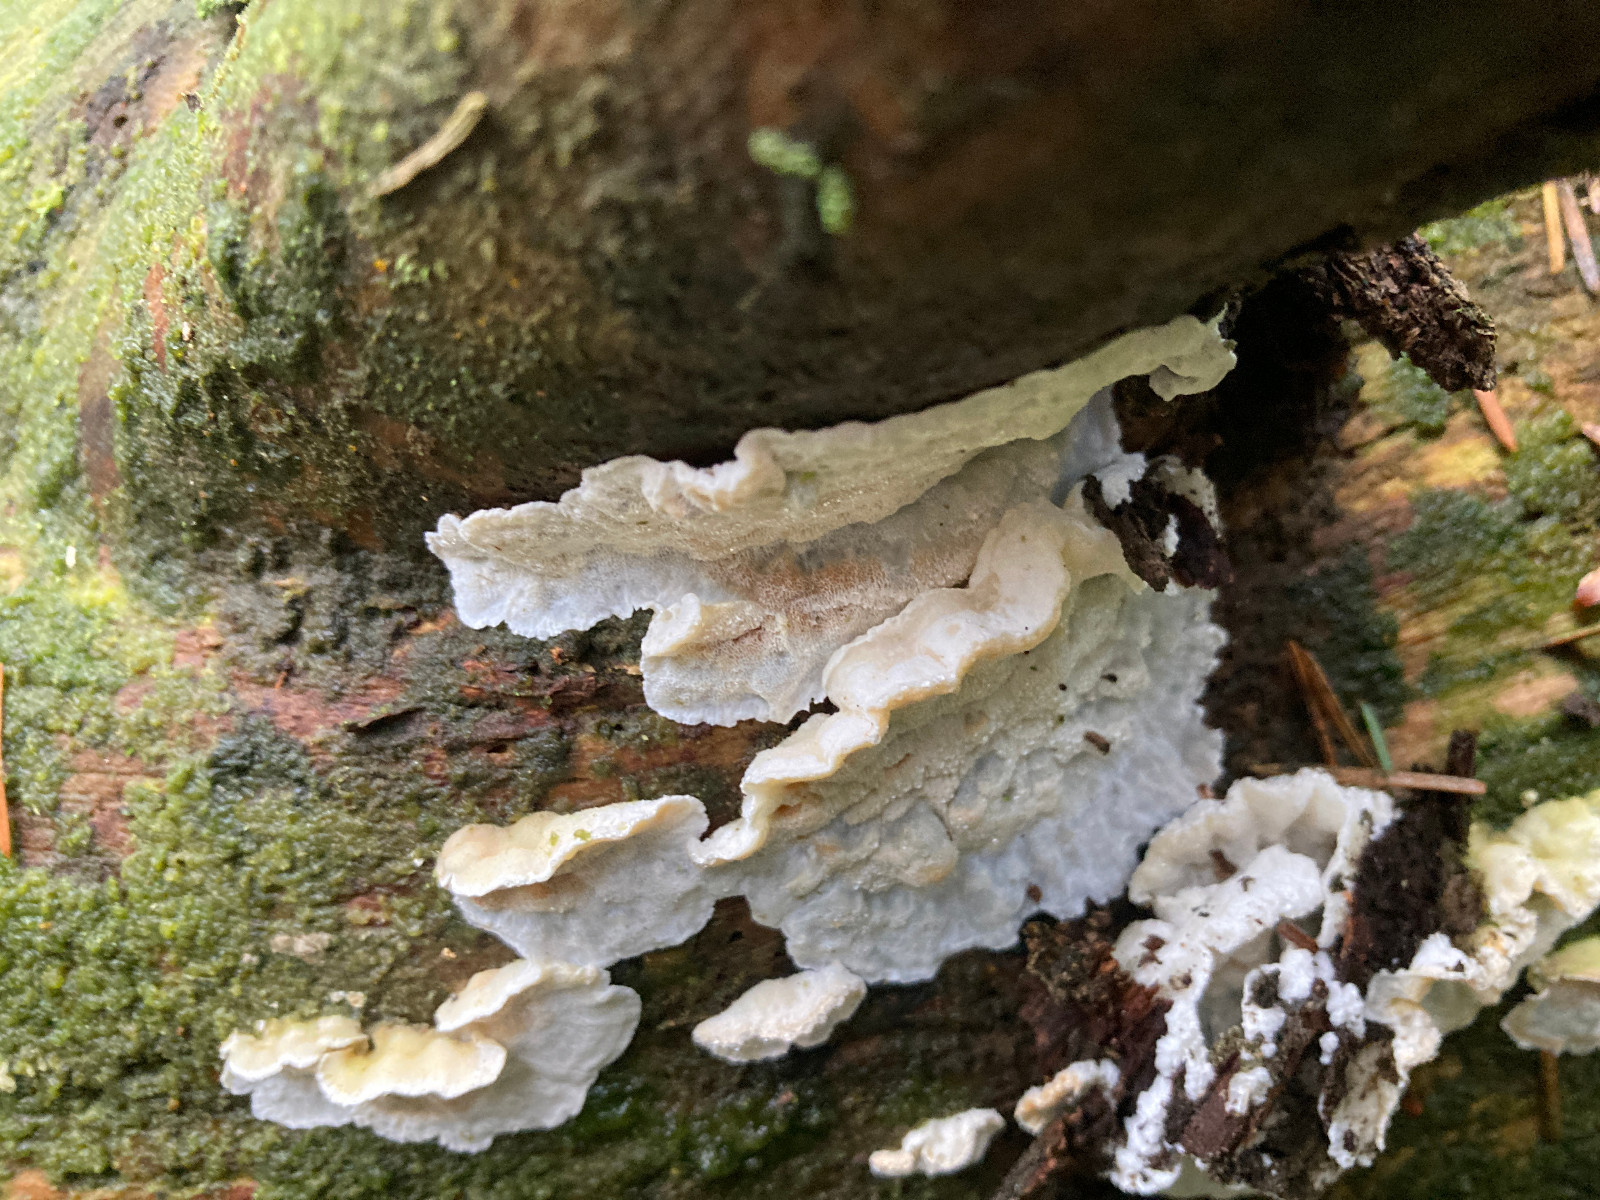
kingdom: Fungi
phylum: Basidiomycota
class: Agaricomycetes
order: Polyporales
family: Incrustoporiaceae
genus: Skeletocutis
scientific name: Skeletocutis amorpha
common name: orange krystalporesvamp
